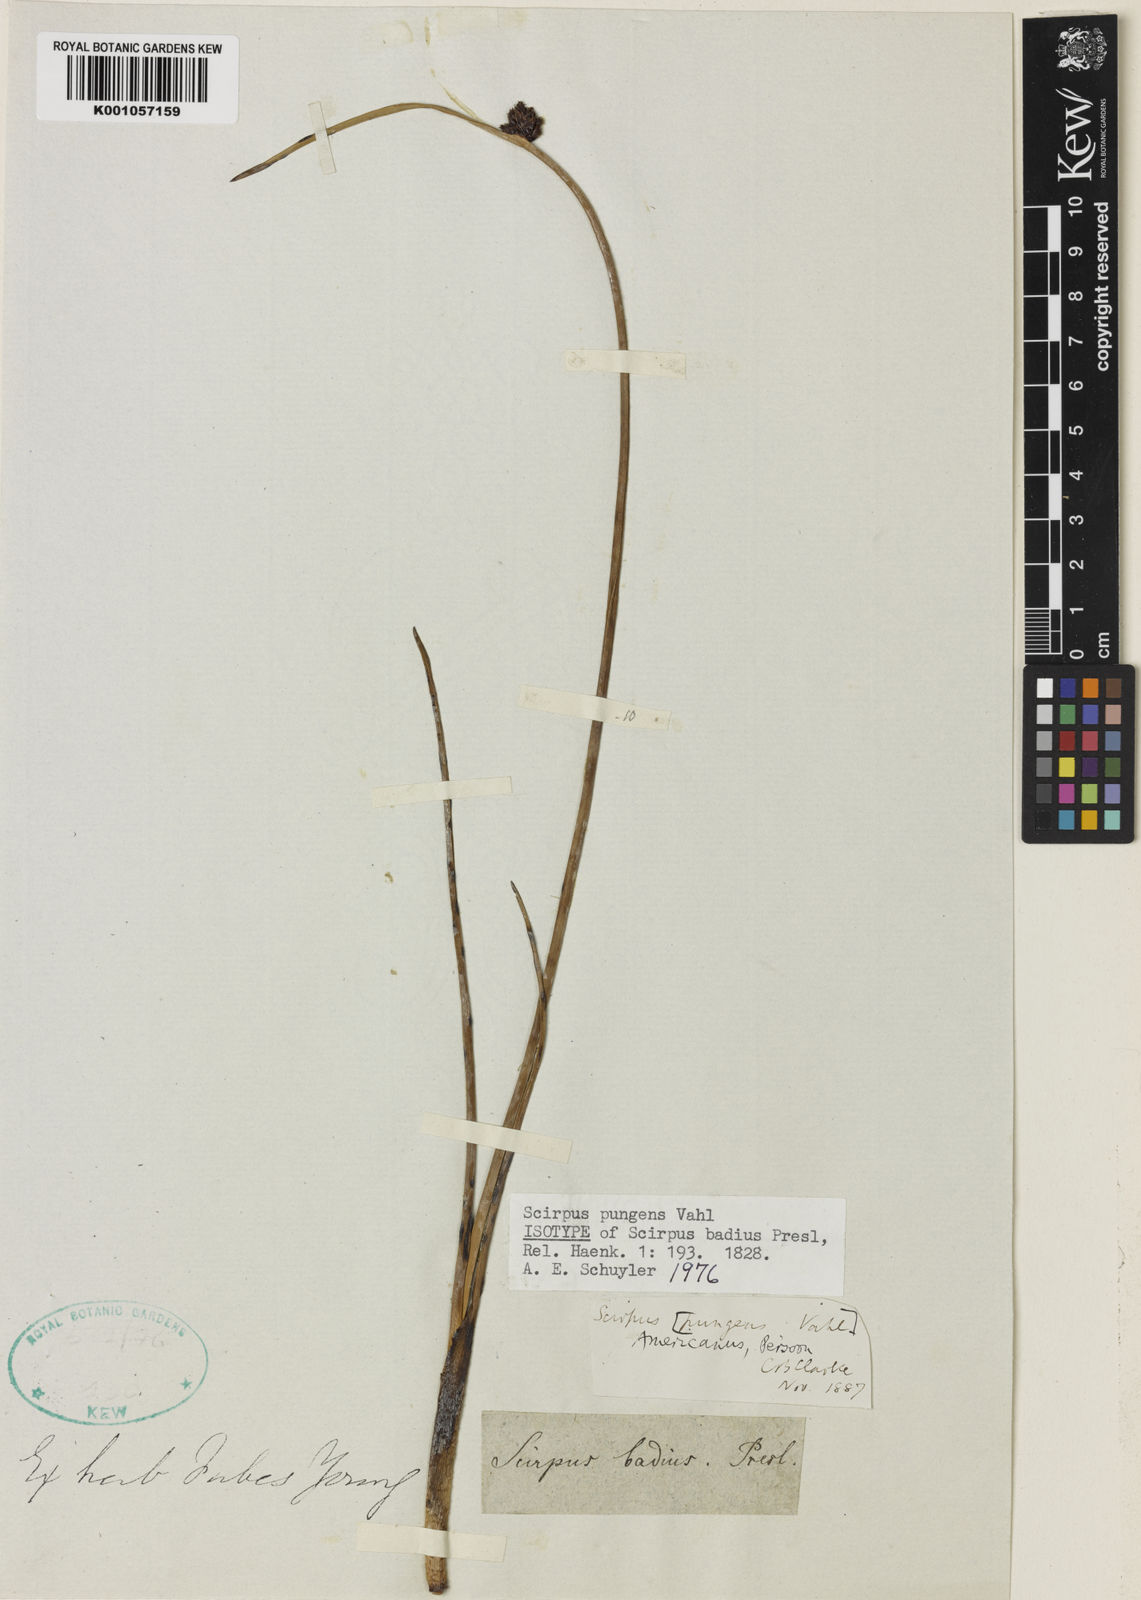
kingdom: Plantae
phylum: Tracheophyta
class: Liliopsida
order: Poales
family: Cyperaceae
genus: Schoenoplectus
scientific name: Schoenoplectus pungens
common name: Sharp club-rush
